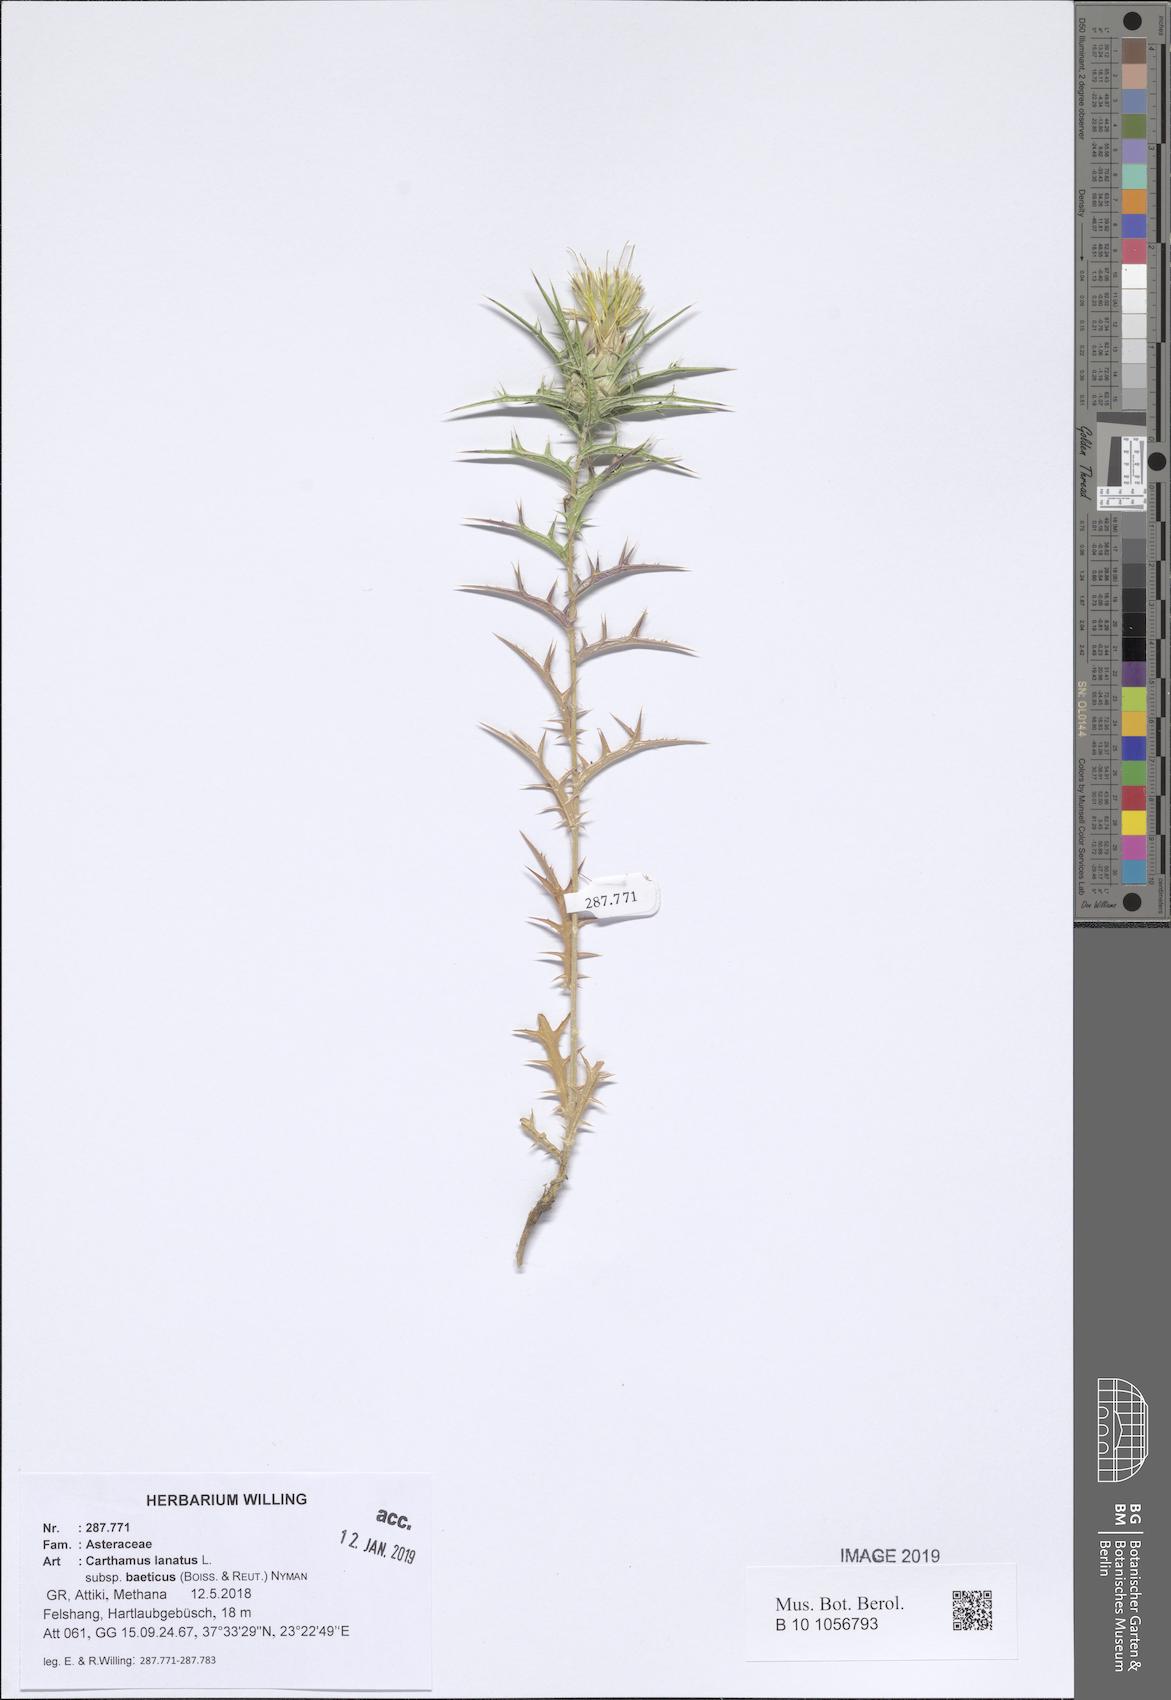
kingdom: Plantae
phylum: Tracheophyta
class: Magnoliopsida
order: Asterales
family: Asteraceae
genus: Carthamus
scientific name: Carthamus creticus
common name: Smooth distaff thistle
